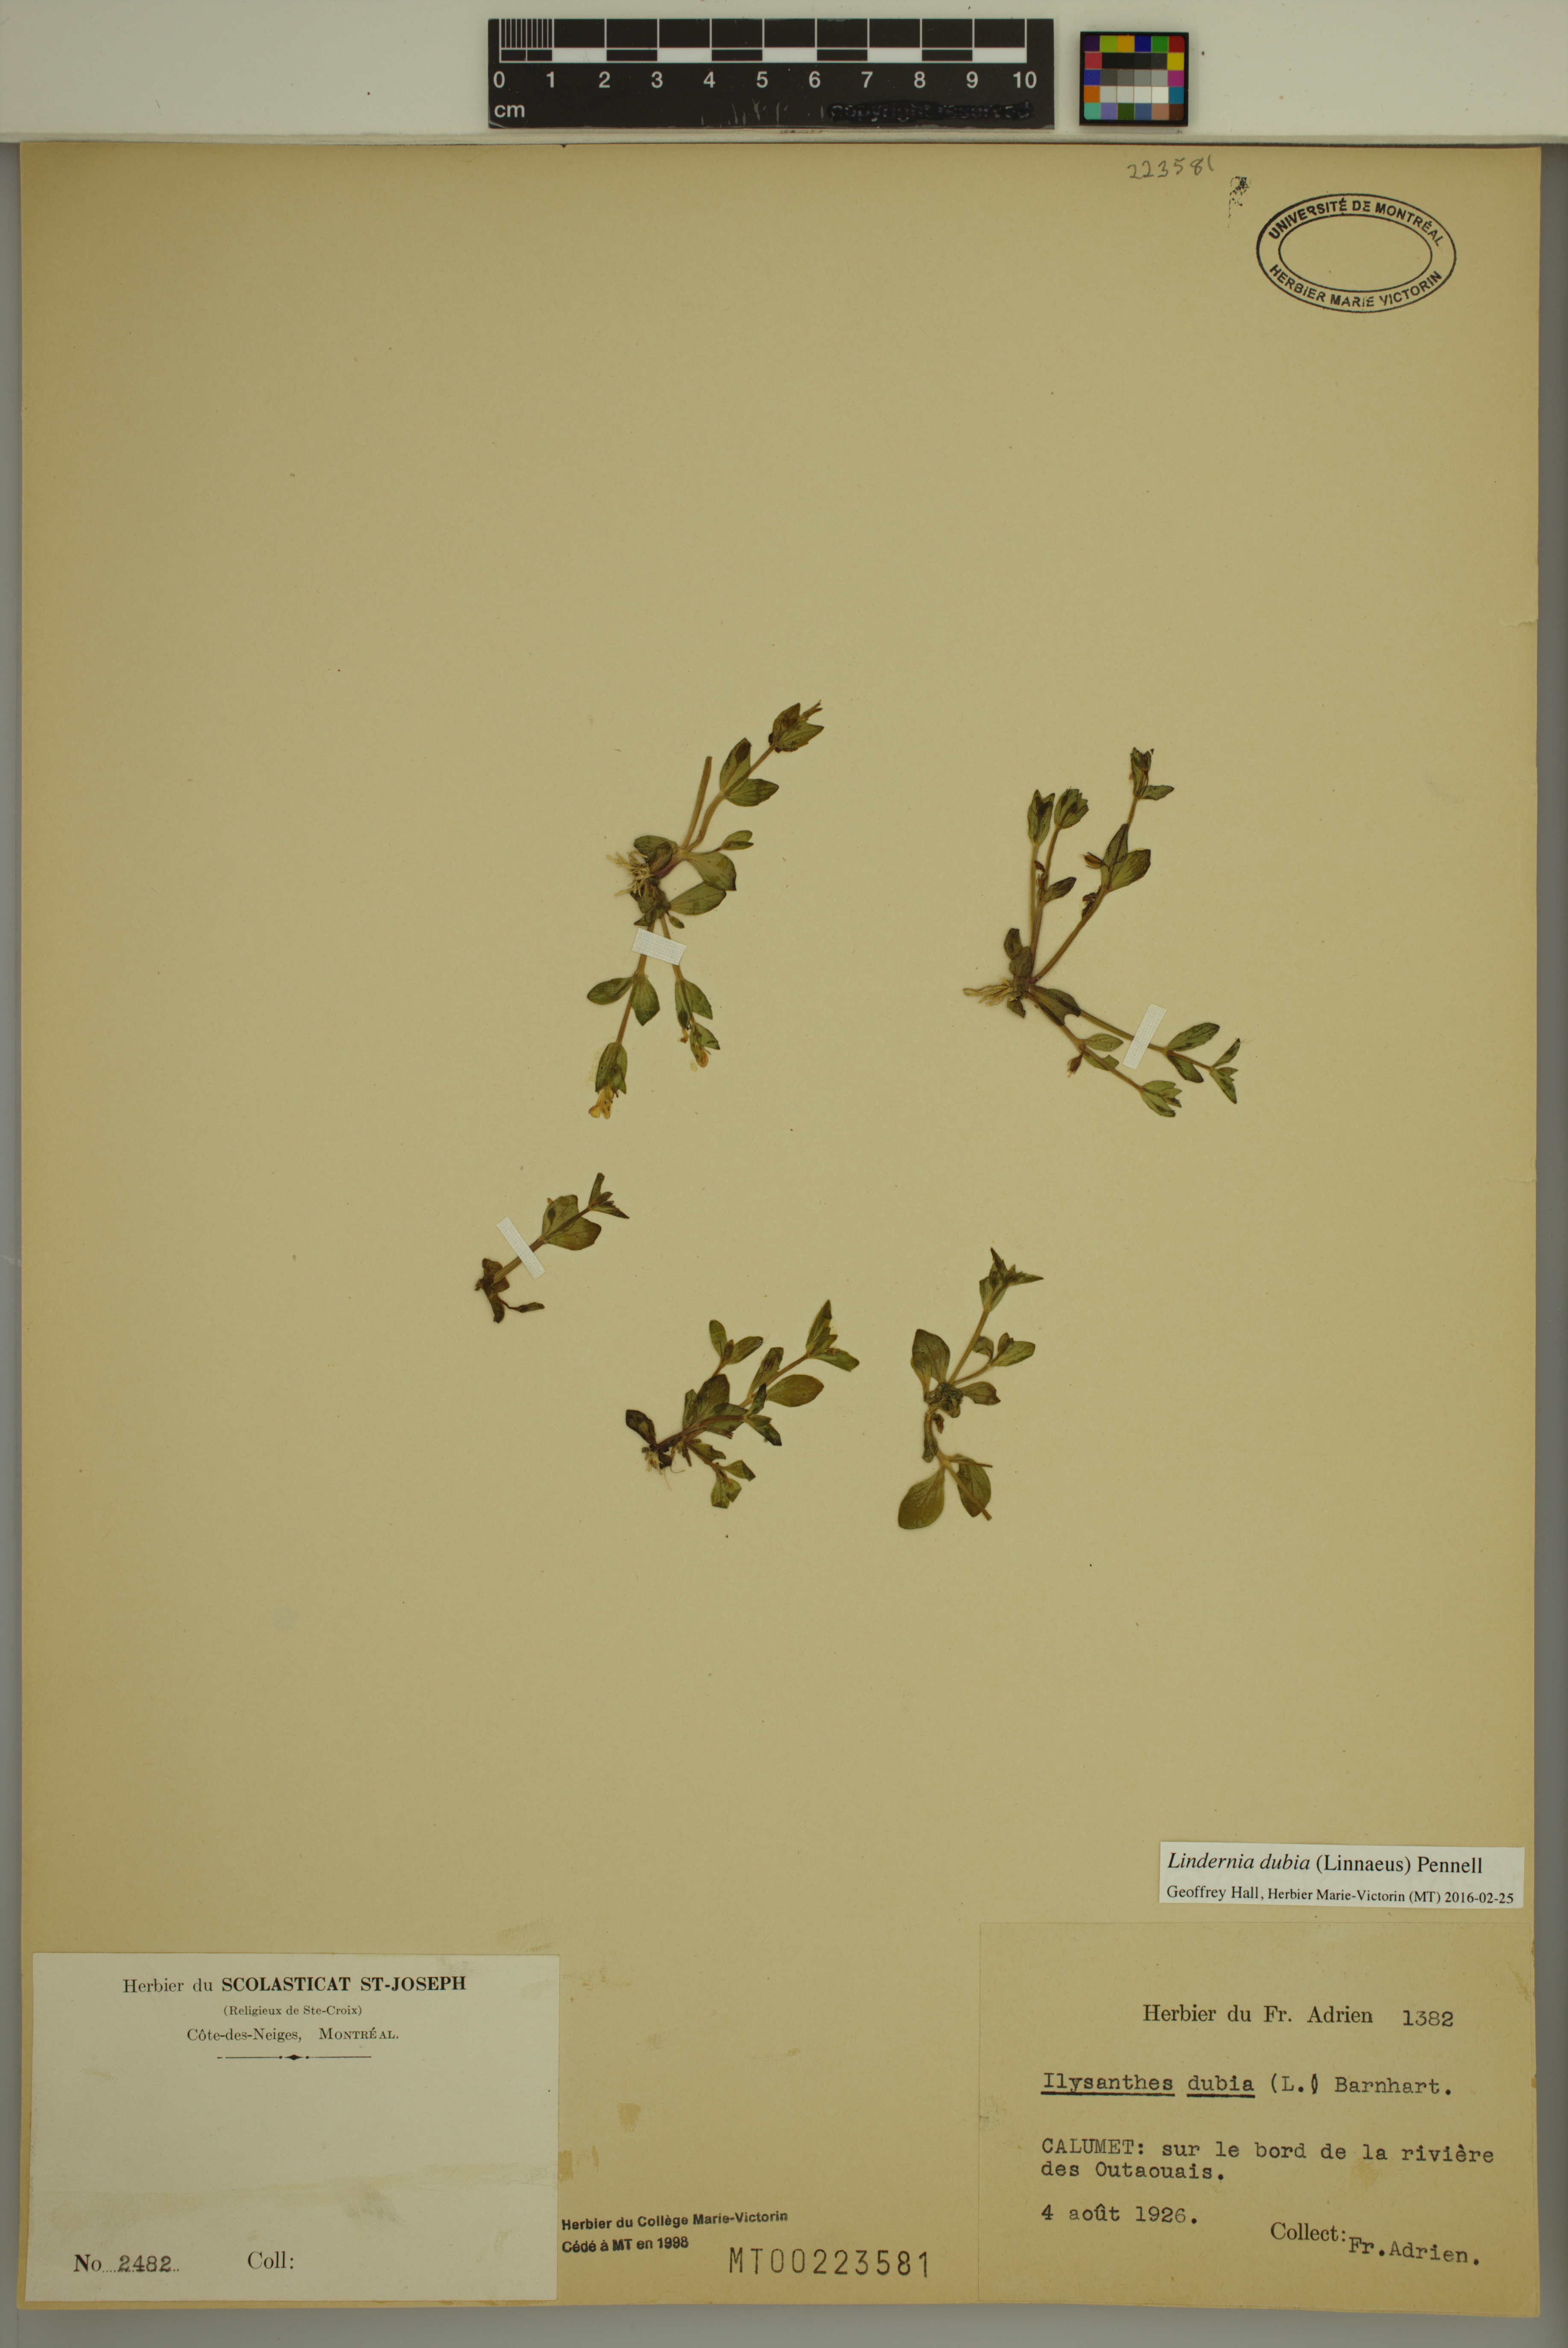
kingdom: Plantae
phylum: Tracheophyta
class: Magnoliopsida
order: Lamiales
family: Linderniaceae
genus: Lindernia
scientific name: Lindernia dubia
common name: Annual false pimpernel
